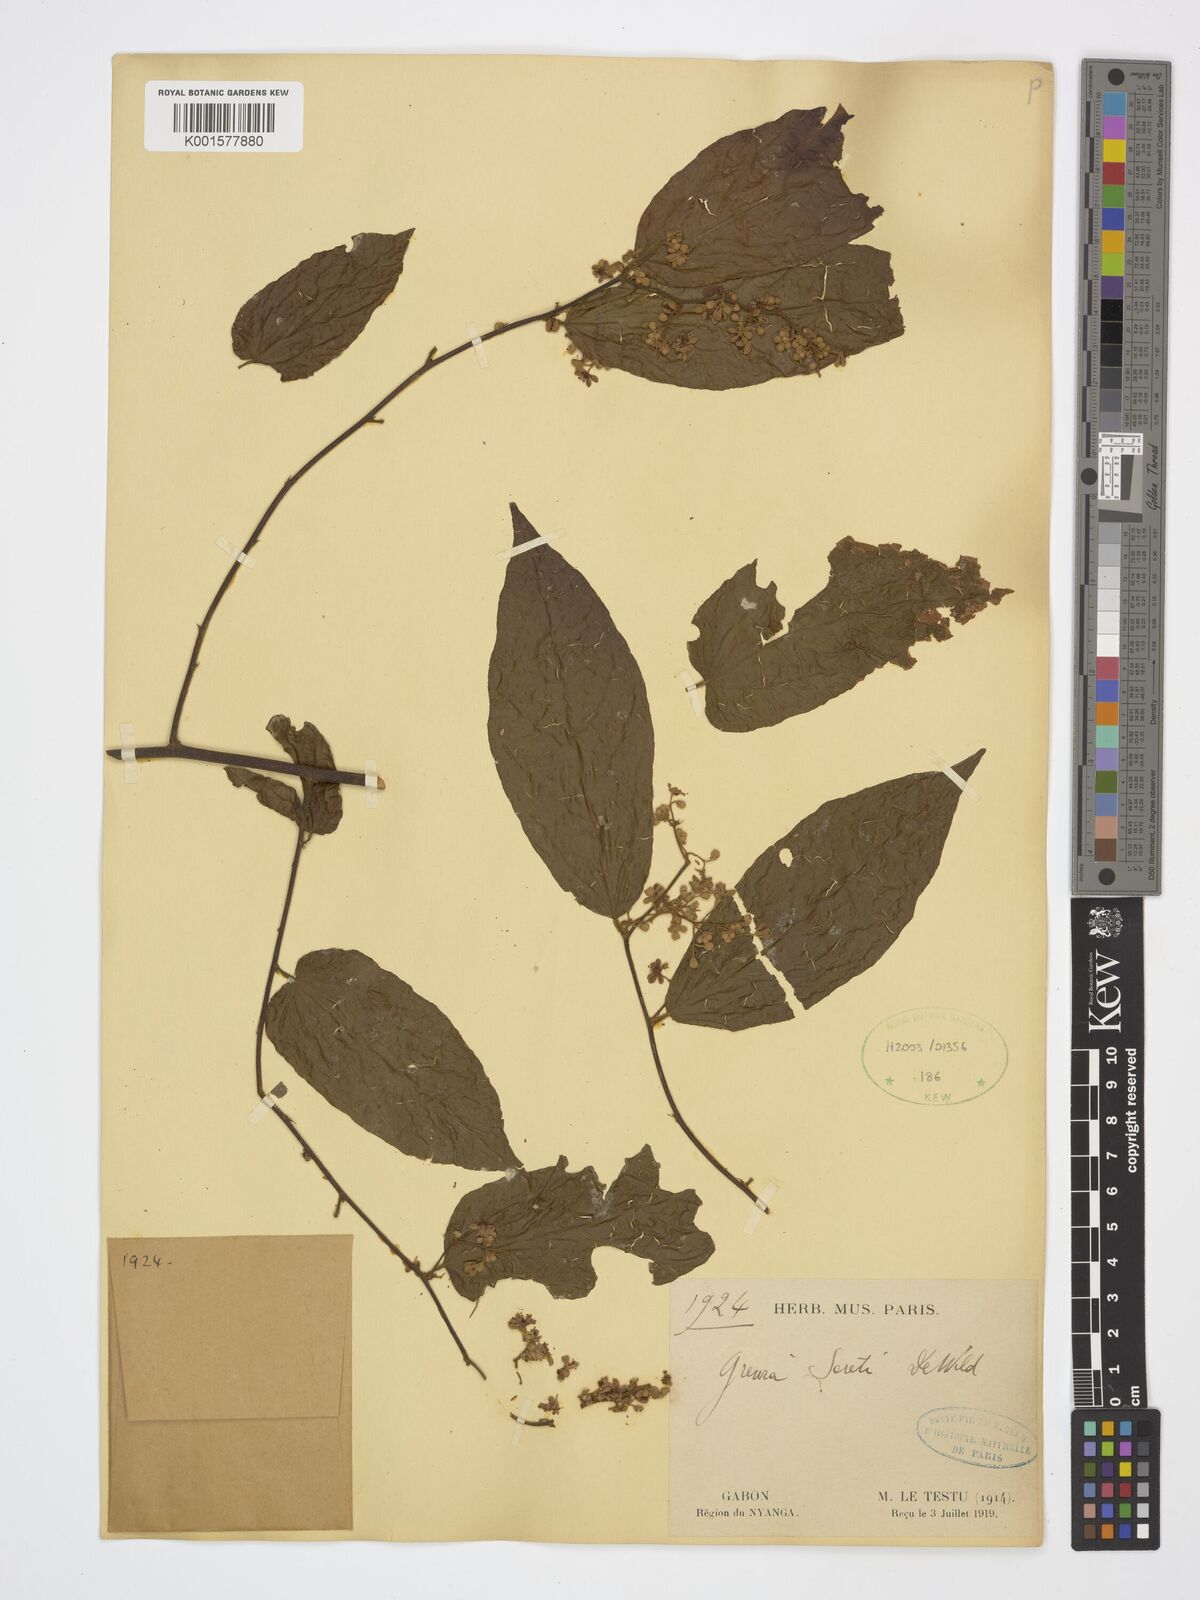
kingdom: Plantae
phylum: Tracheophyta
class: Magnoliopsida
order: Malvales
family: Malvaceae
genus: Microcos
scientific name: Microcos seretii
